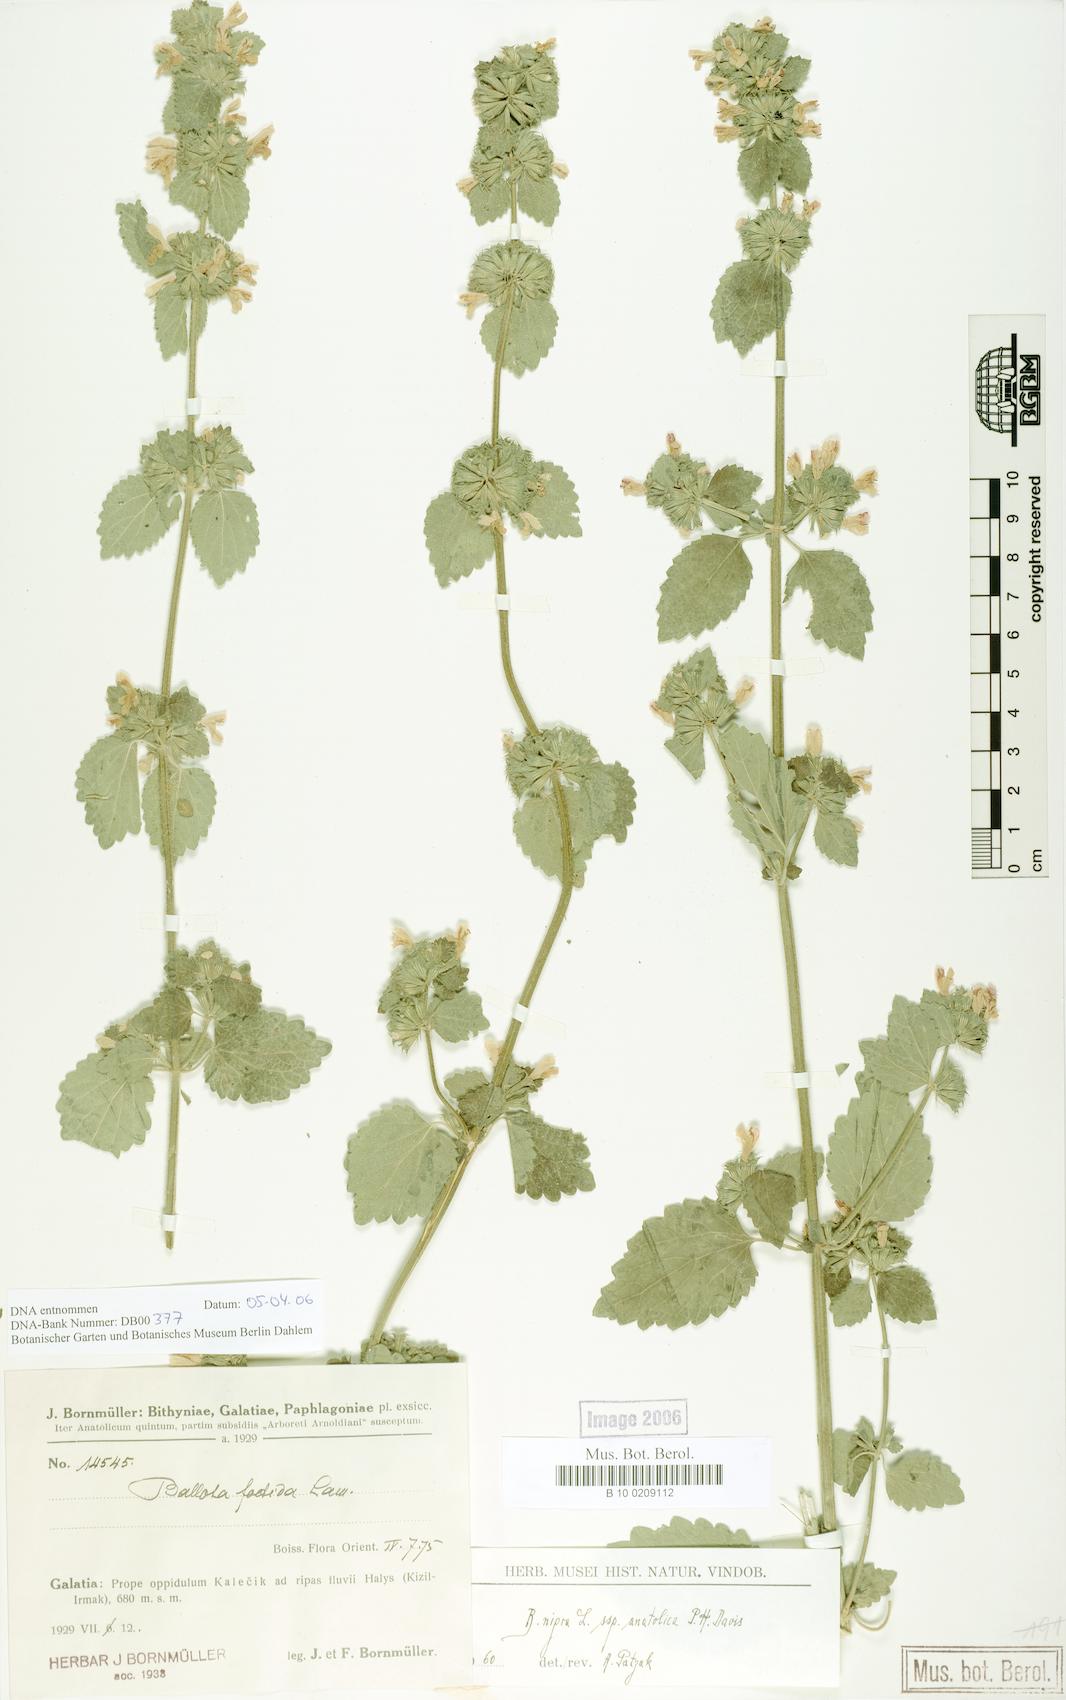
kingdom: Plantae
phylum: Tracheophyta
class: Magnoliopsida
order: Lamiales
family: Lamiaceae
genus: Ballota
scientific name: Ballota nigra
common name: Black horehound
